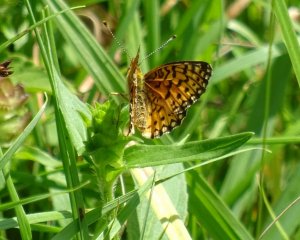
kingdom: Animalia
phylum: Arthropoda
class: Insecta
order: Lepidoptera
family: Nymphalidae
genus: Boloria
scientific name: Boloria selene
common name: Silver-bordered Fritillary
